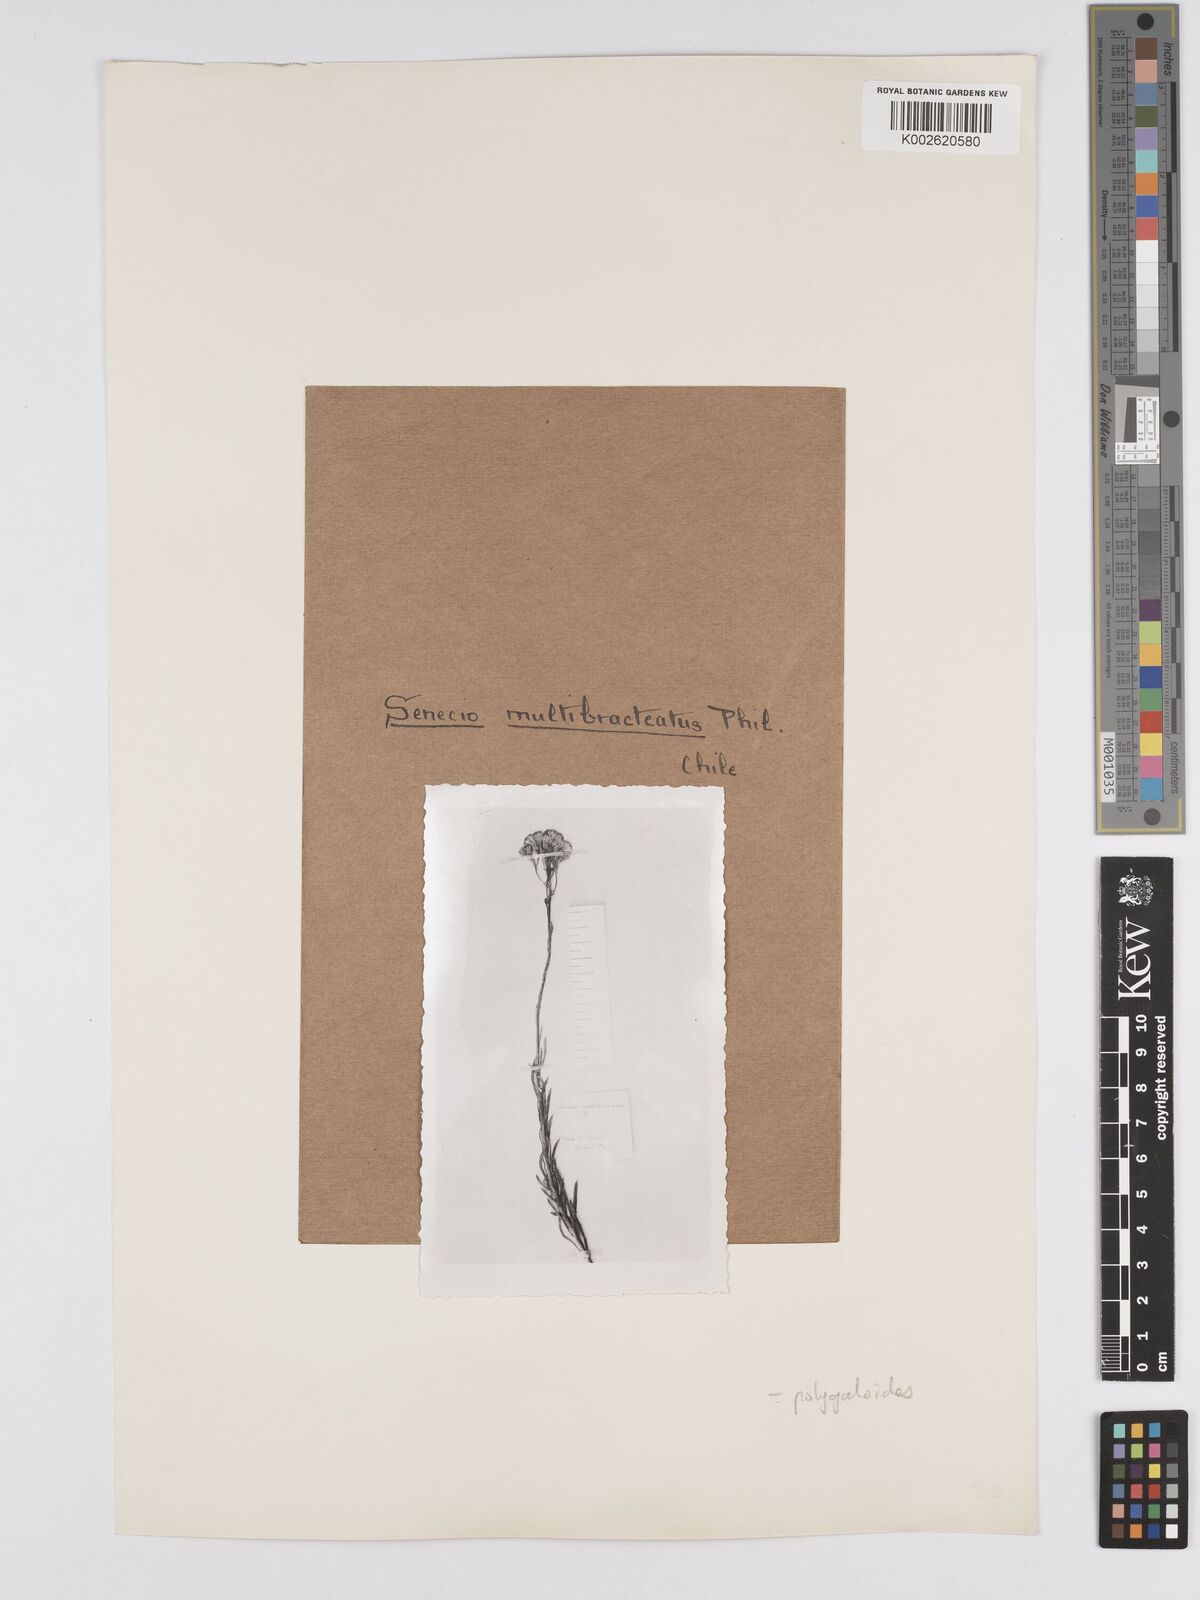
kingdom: Plantae
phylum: Tracheophyta
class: Magnoliopsida
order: Asterales
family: Asteraceae
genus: Senecio
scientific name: Senecio polygaloides
